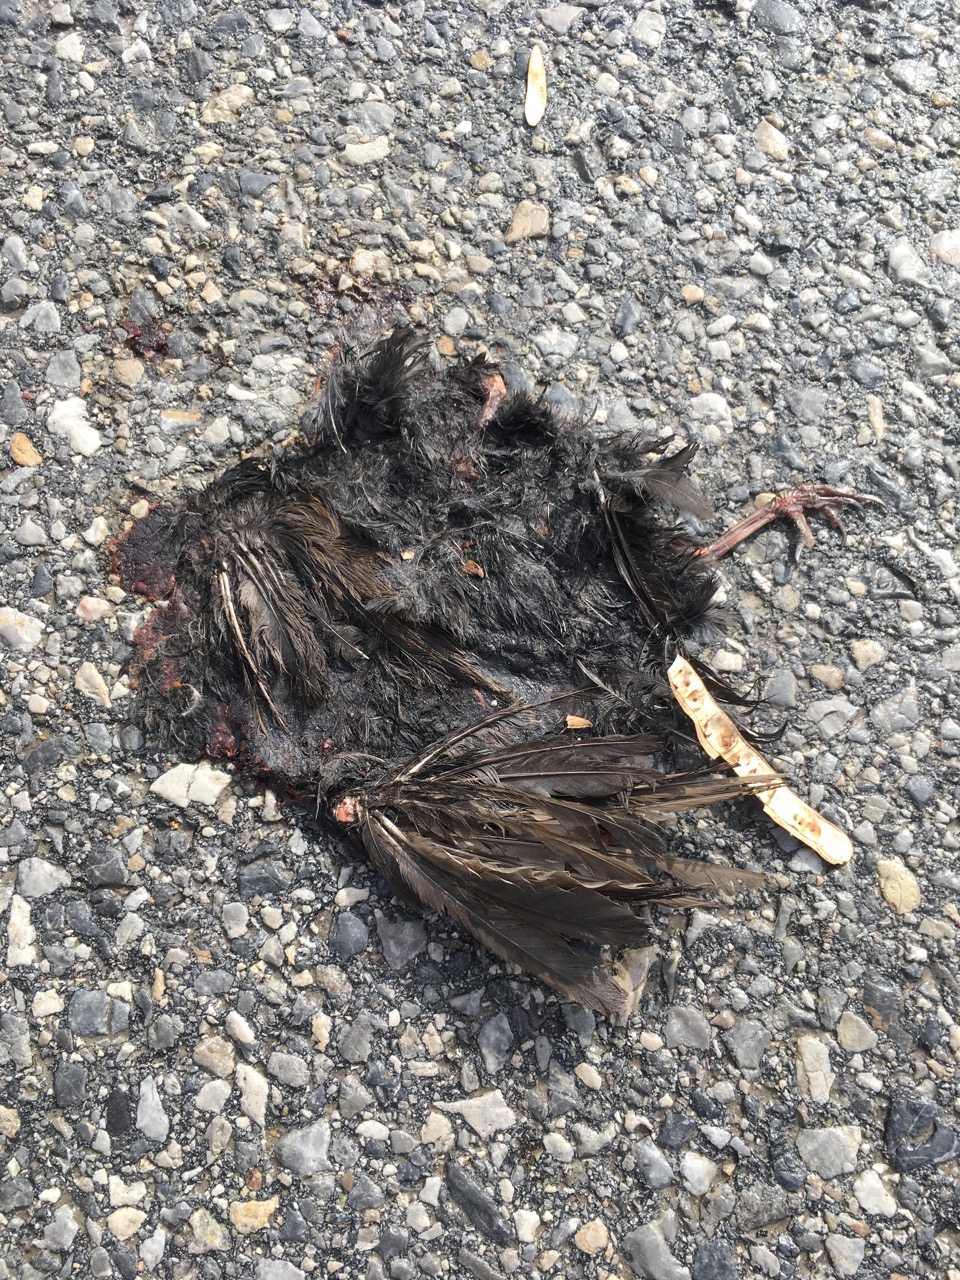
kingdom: Animalia
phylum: Chordata
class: Aves
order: Passeriformes
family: Turdidae
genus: Turdus
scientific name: Turdus merula
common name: Common blackbird
